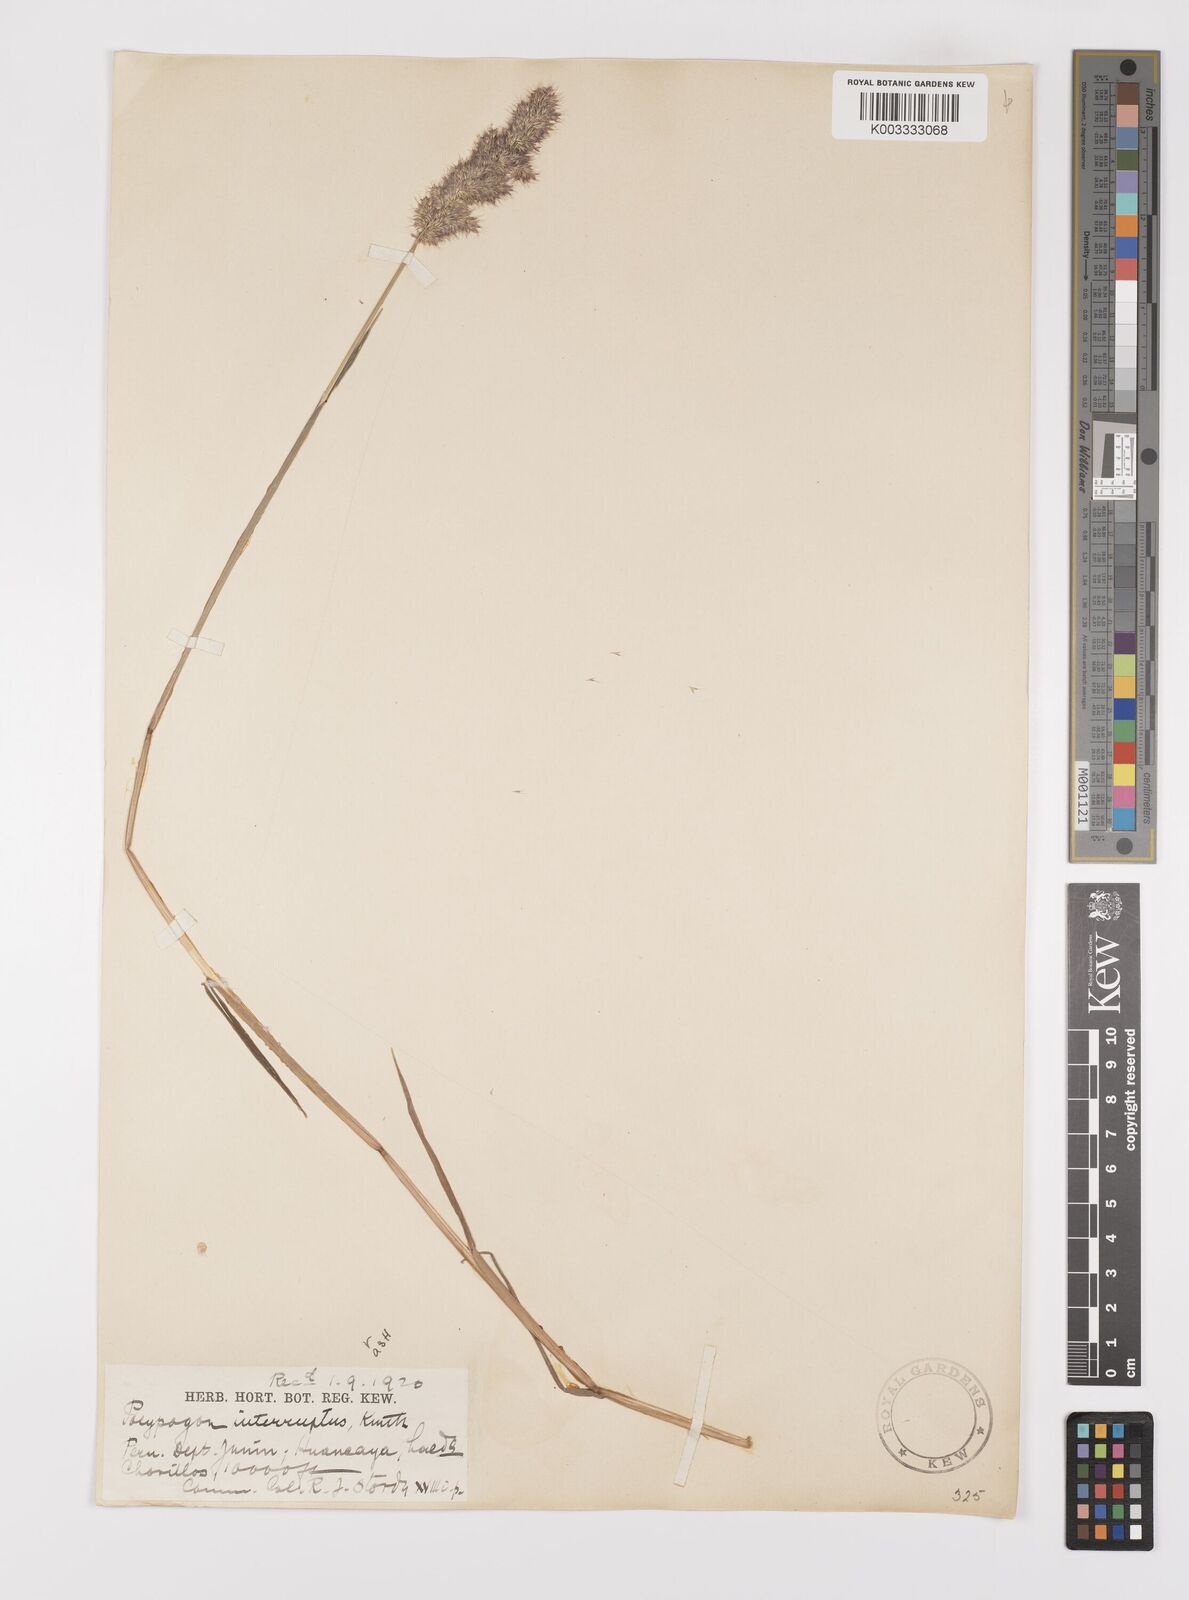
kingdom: Plantae
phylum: Tracheophyta
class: Liliopsida
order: Poales
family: Poaceae
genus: Polypogon
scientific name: Polypogon interruptus
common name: Ditch polypogon
